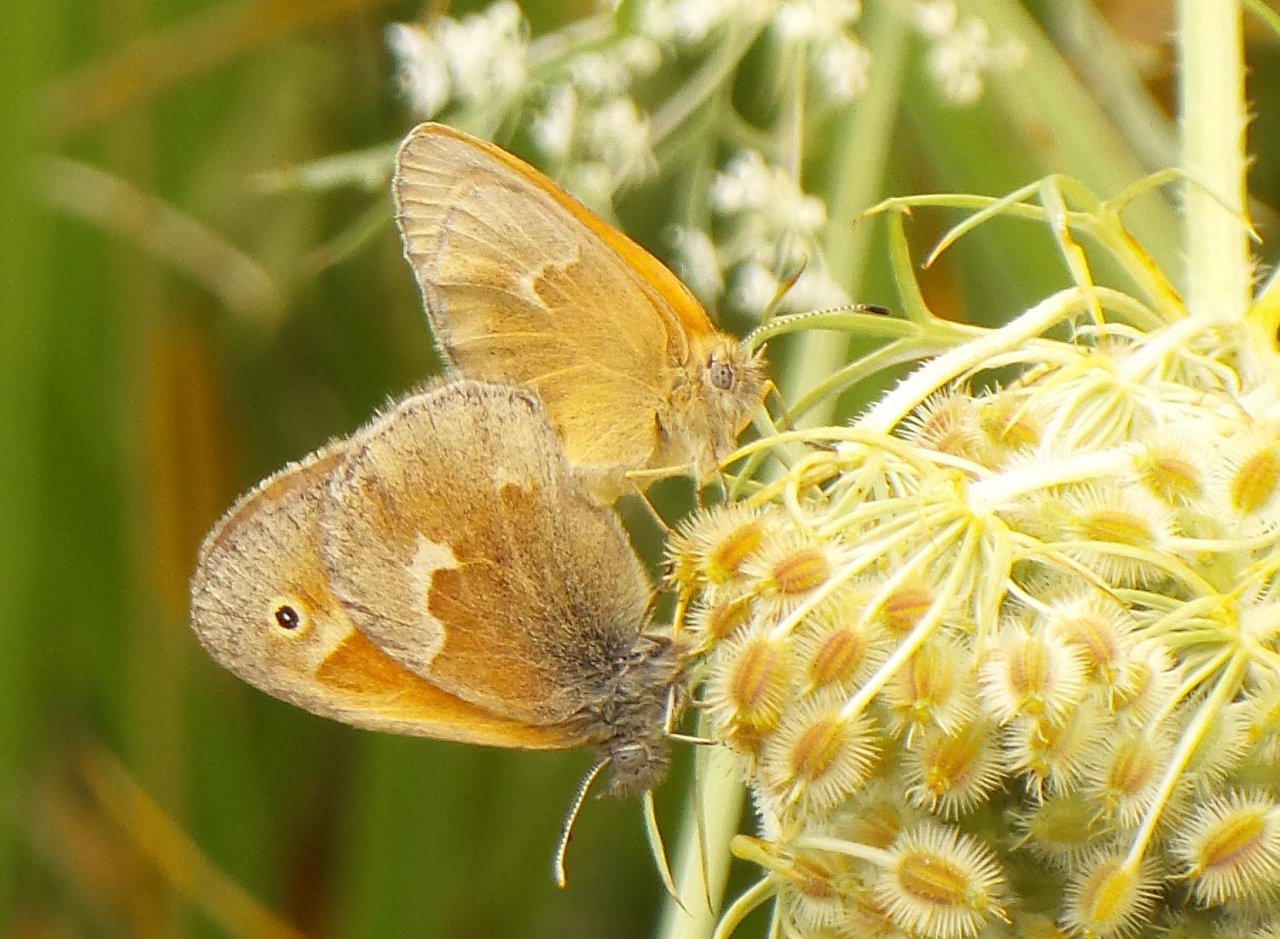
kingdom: Animalia
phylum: Arthropoda
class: Insecta
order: Lepidoptera
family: Nymphalidae
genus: Coenonympha
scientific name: Coenonympha tullia
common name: Large Heath
